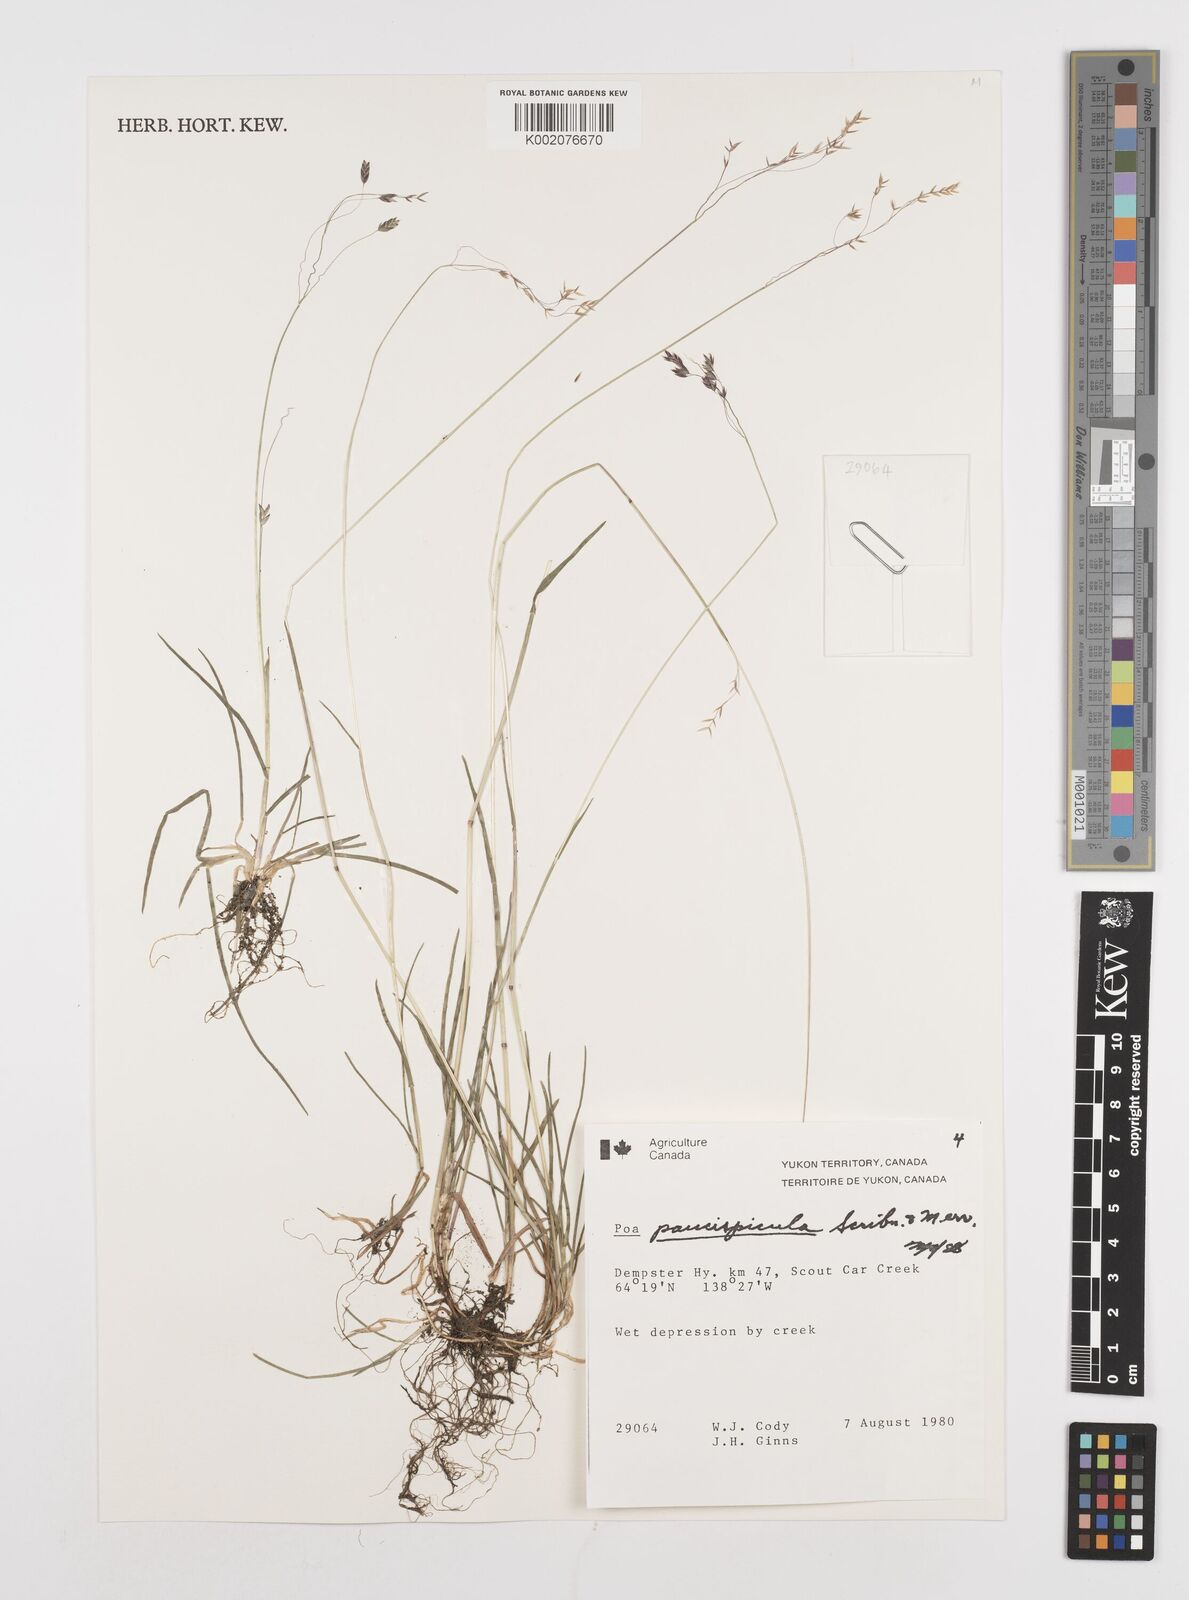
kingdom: Plantae
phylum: Tracheophyta
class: Liliopsida
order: Poales
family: Poaceae
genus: Poa
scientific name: Poa paucispicula
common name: Alaska bluegrass
